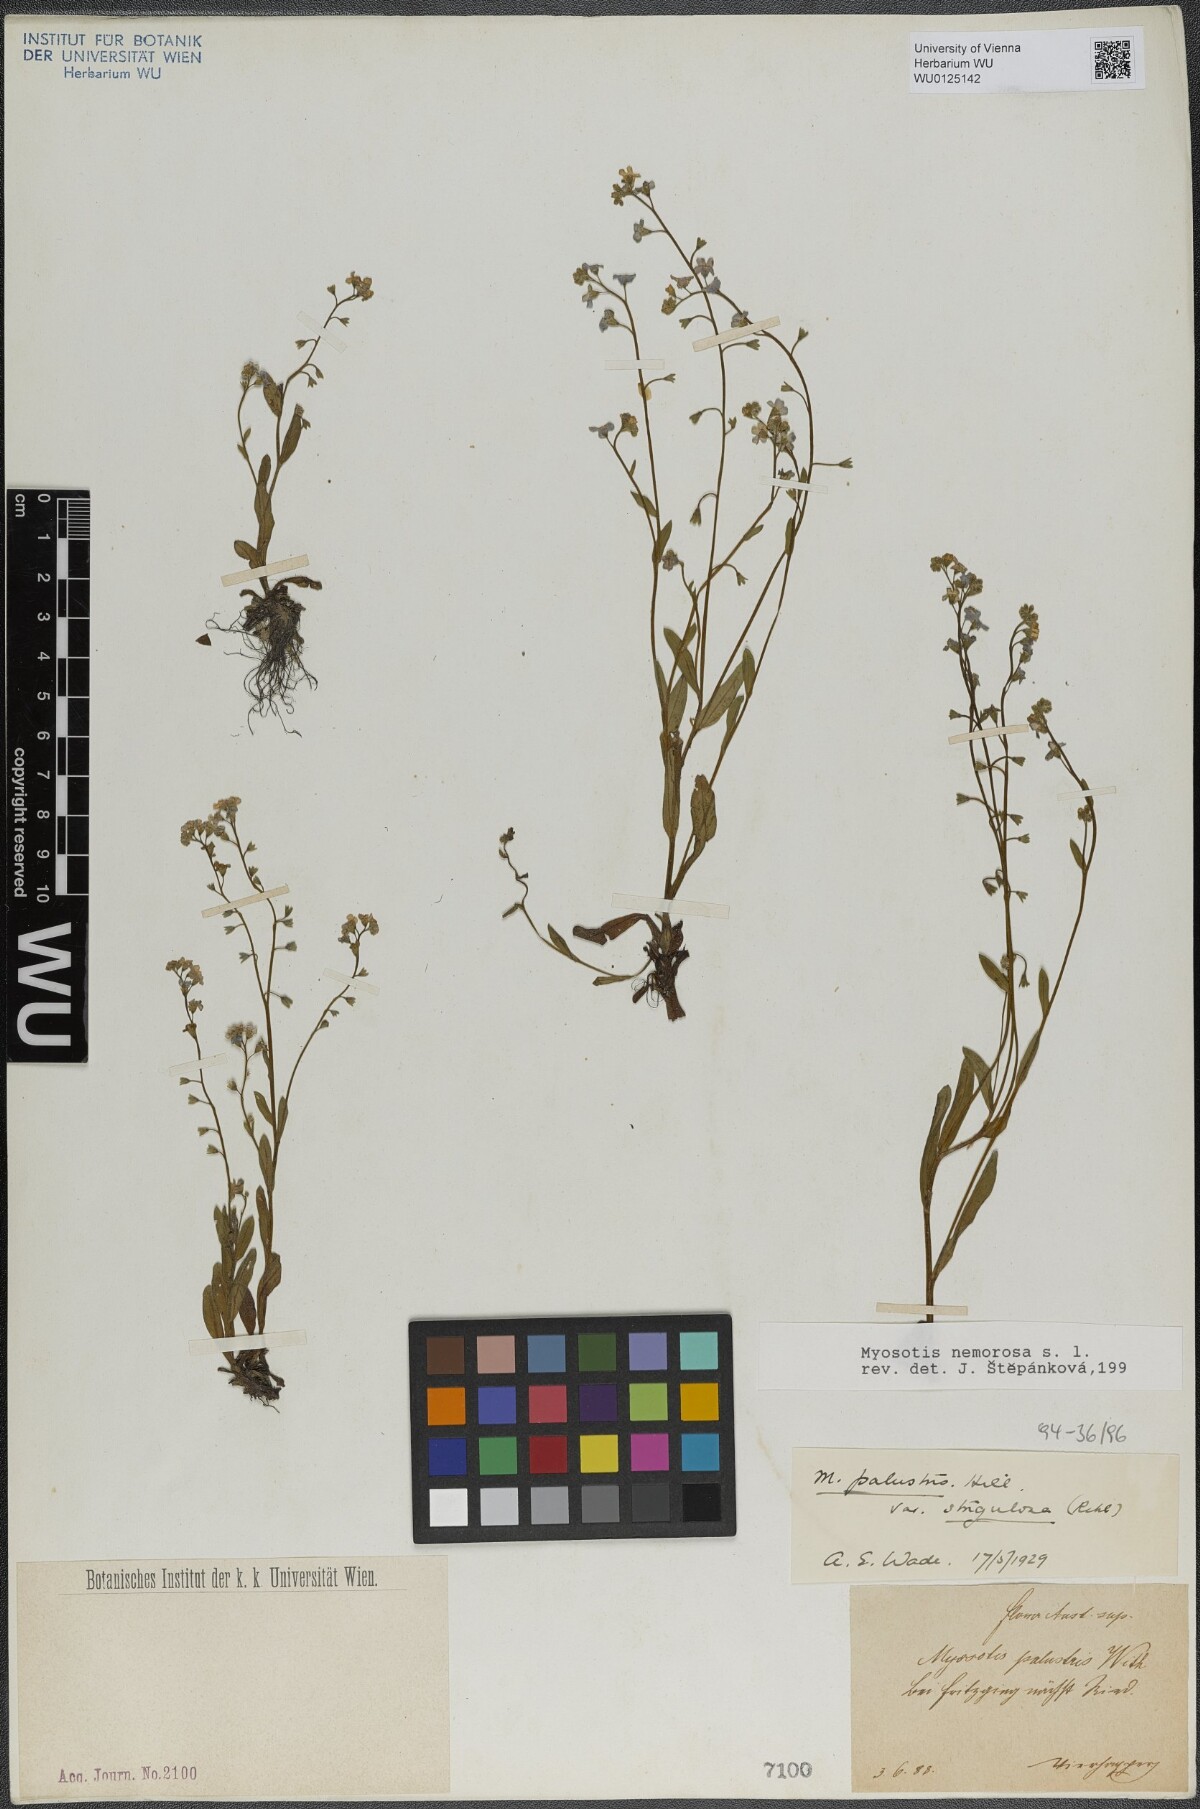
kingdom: Plantae
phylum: Tracheophyta
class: Magnoliopsida
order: Boraginales
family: Boraginaceae
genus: Myosotis
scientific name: Myosotis nemorosa
